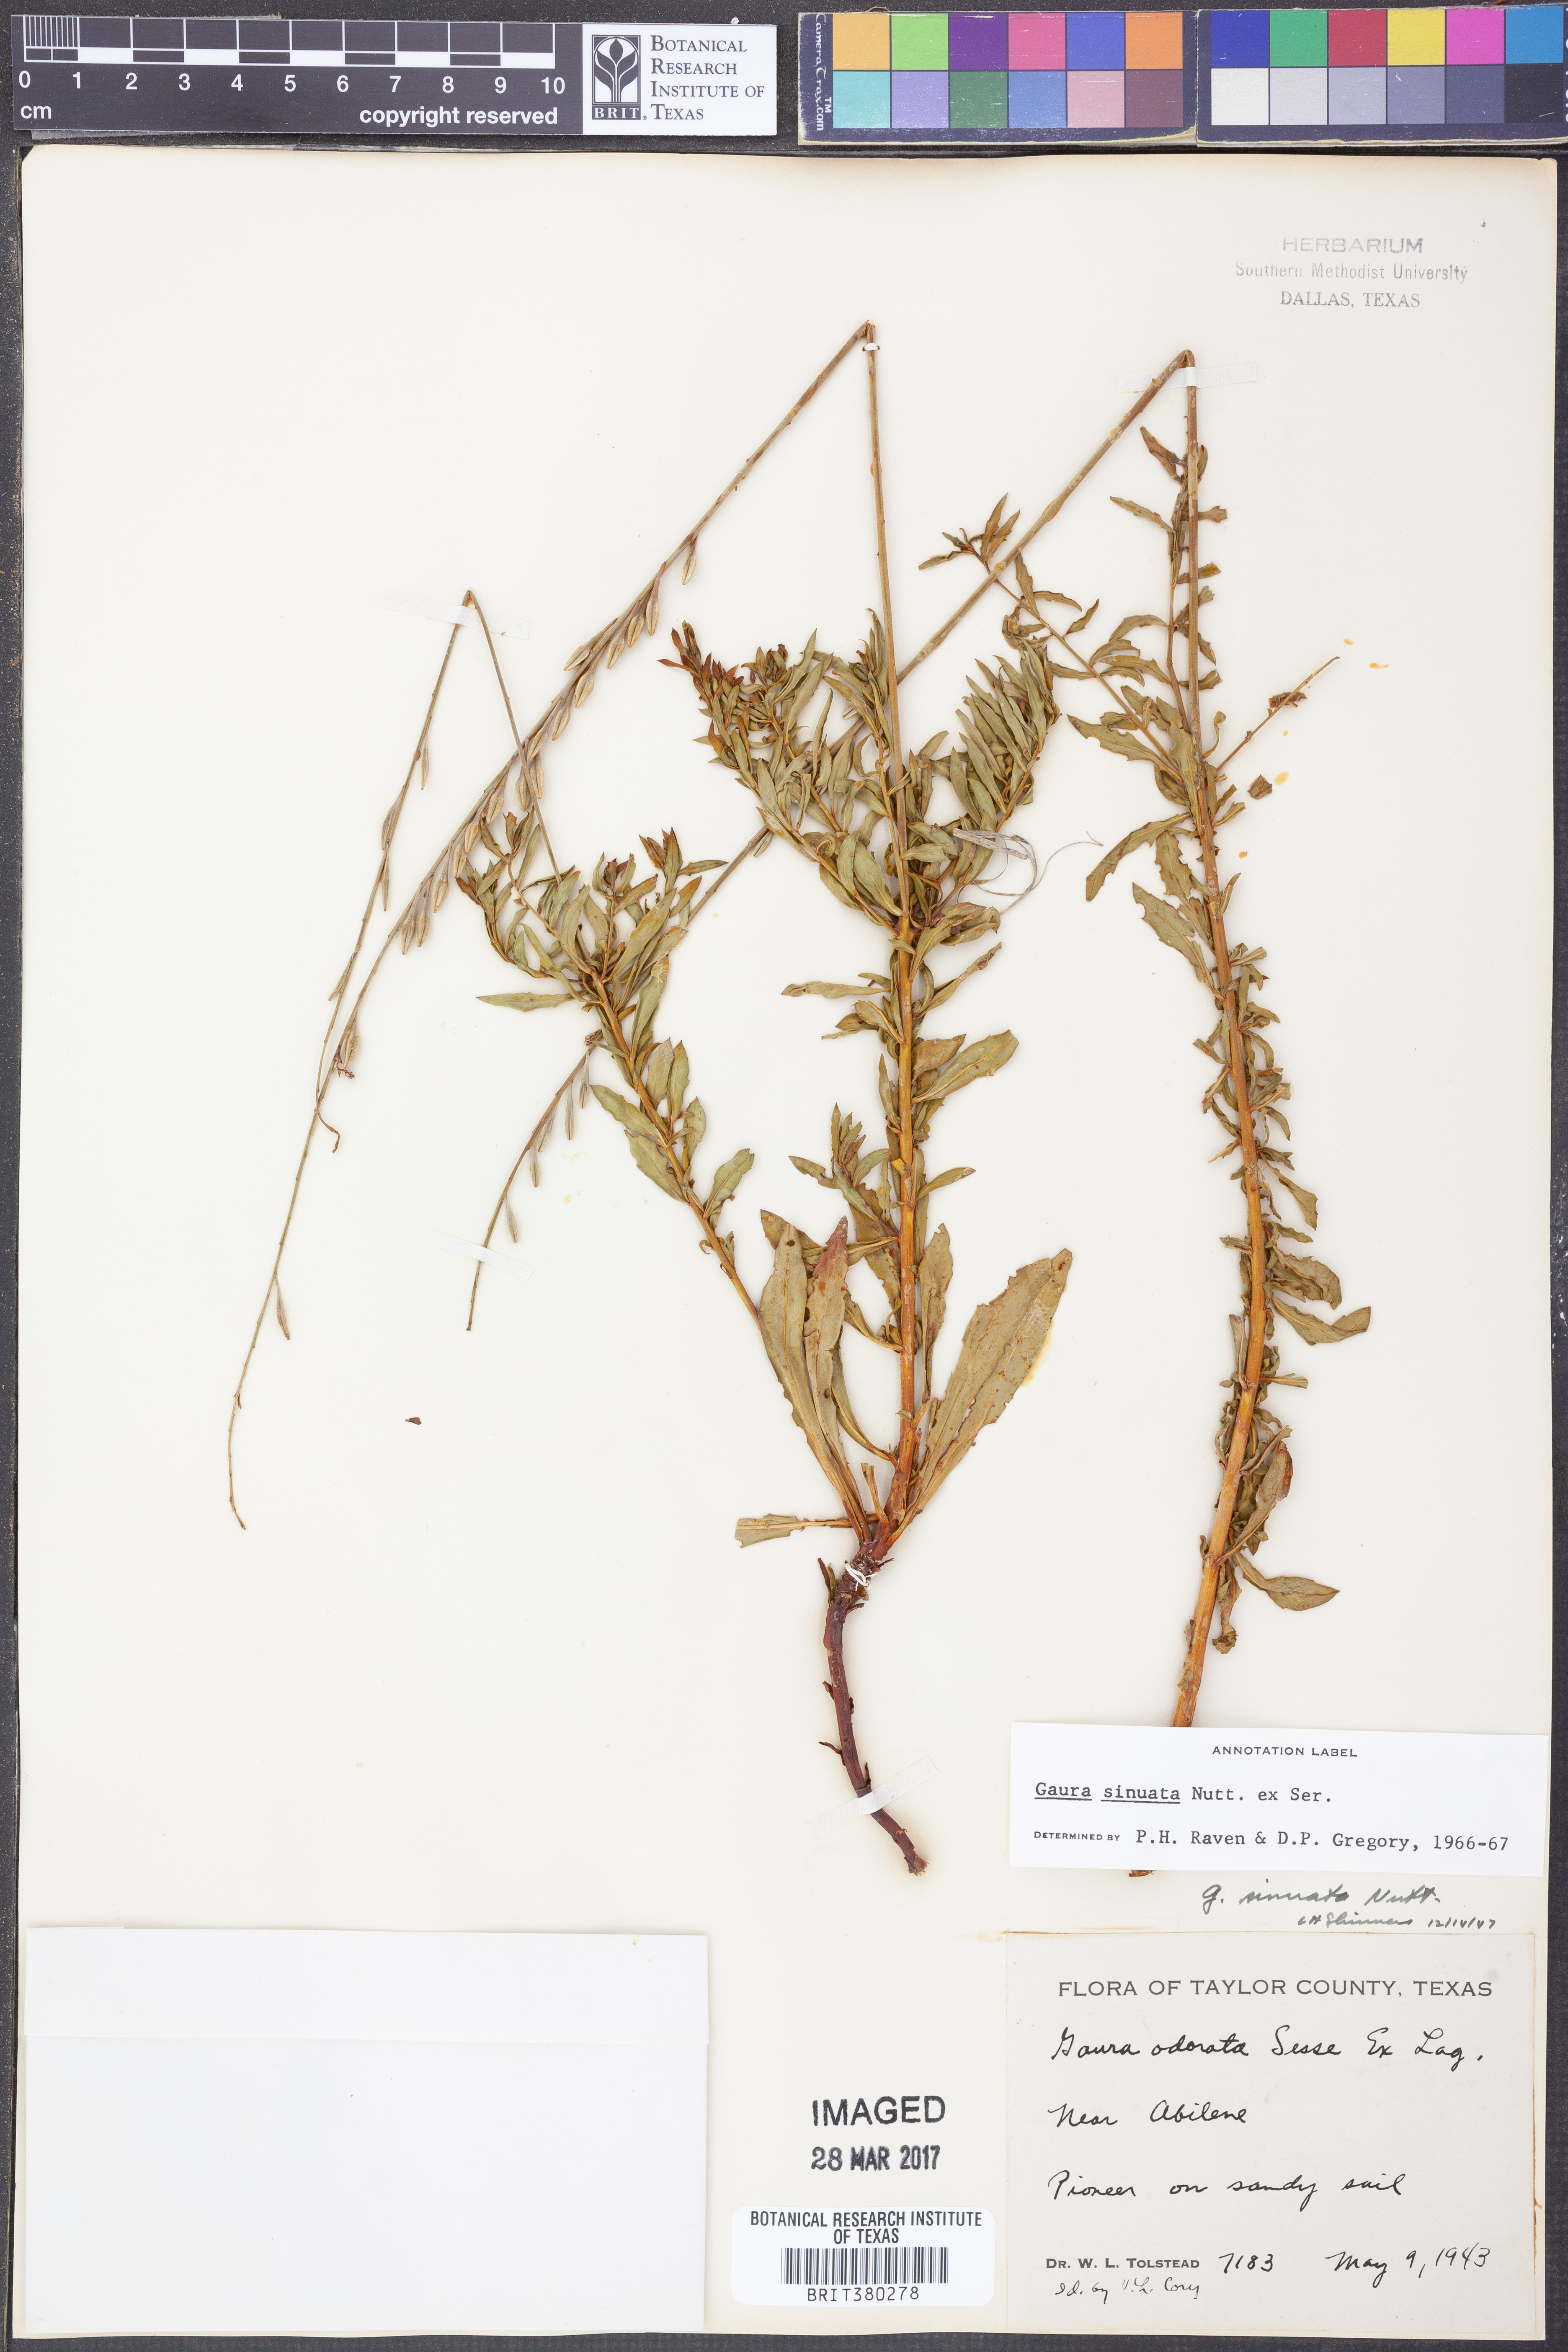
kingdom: Plantae
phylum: Tracheophyta
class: Magnoliopsida
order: Myrtales
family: Onagraceae
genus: Oenothera
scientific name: Oenothera sinuosa
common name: Wavyleaf beeblossom
